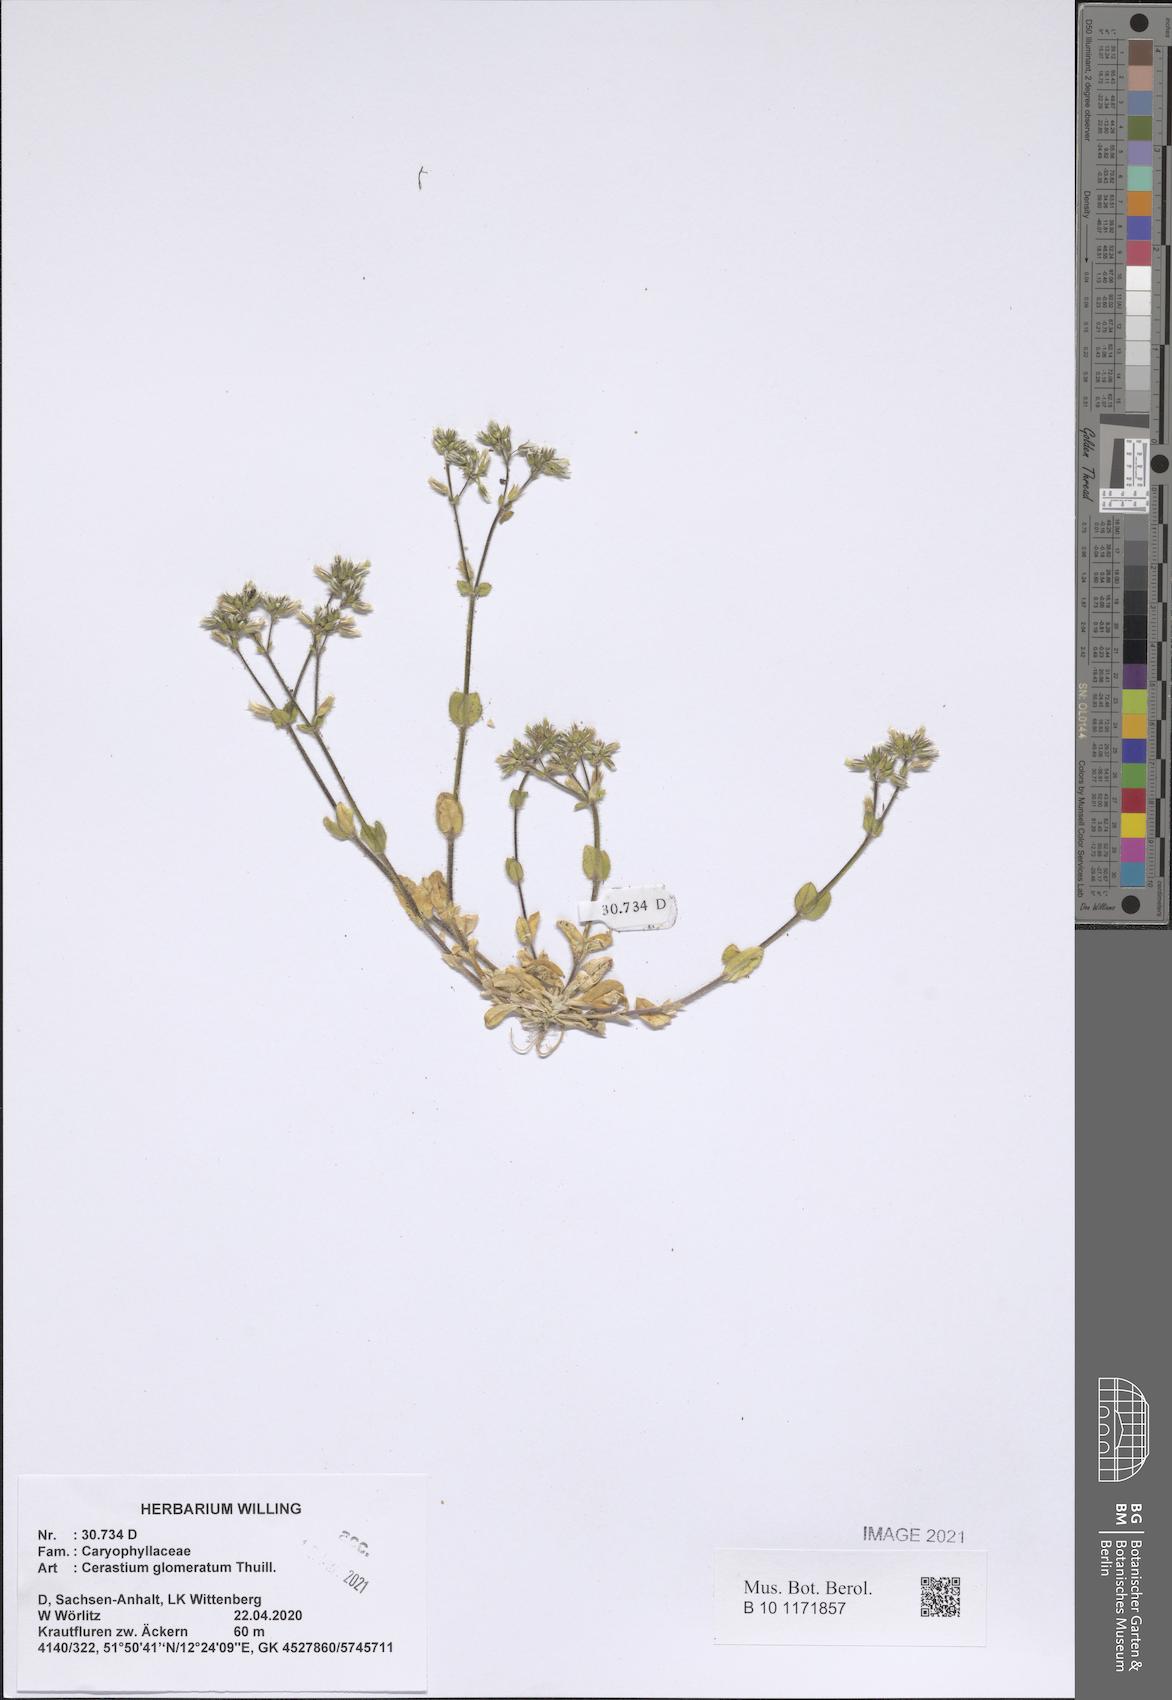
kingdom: Plantae
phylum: Tracheophyta
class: Magnoliopsida
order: Caryophyllales
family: Caryophyllaceae
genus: Cerastium
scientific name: Cerastium glomeratum
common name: Sticky chickweed
